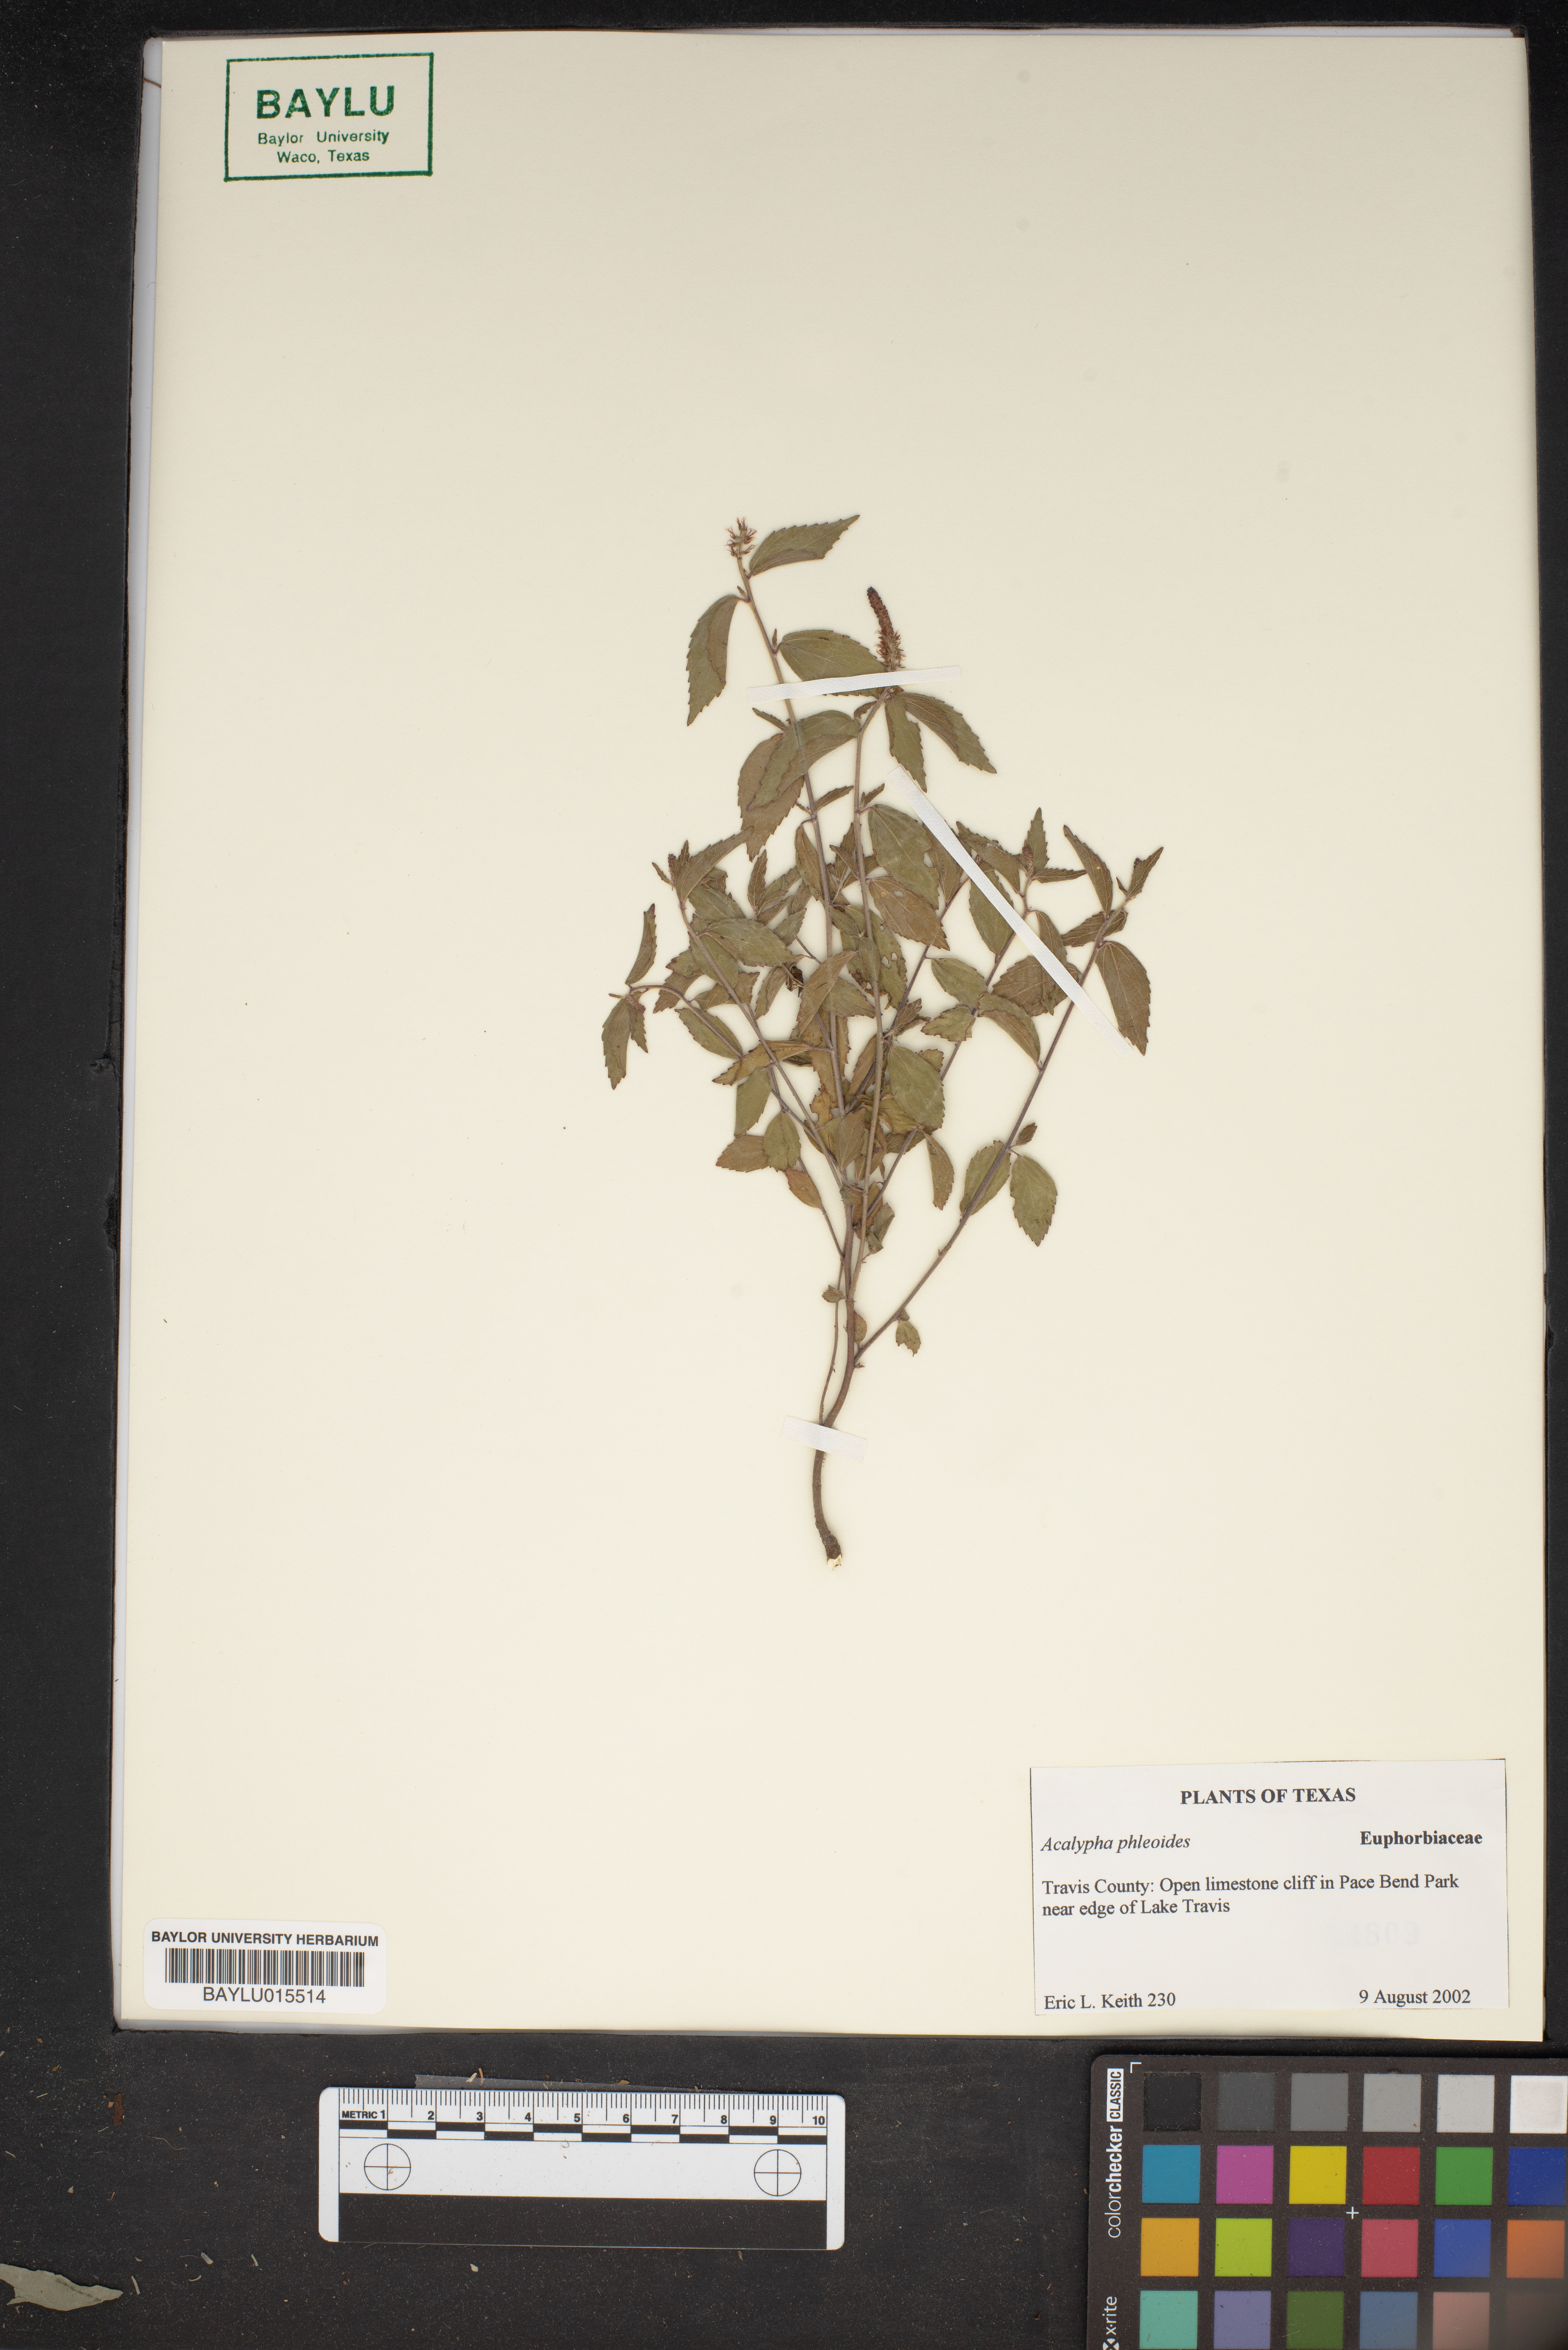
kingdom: Plantae
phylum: Tracheophyta
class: Magnoliopsida
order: Malpighiales
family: Euphorbiaceae
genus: Acalypha
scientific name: Acalypha phleoides
